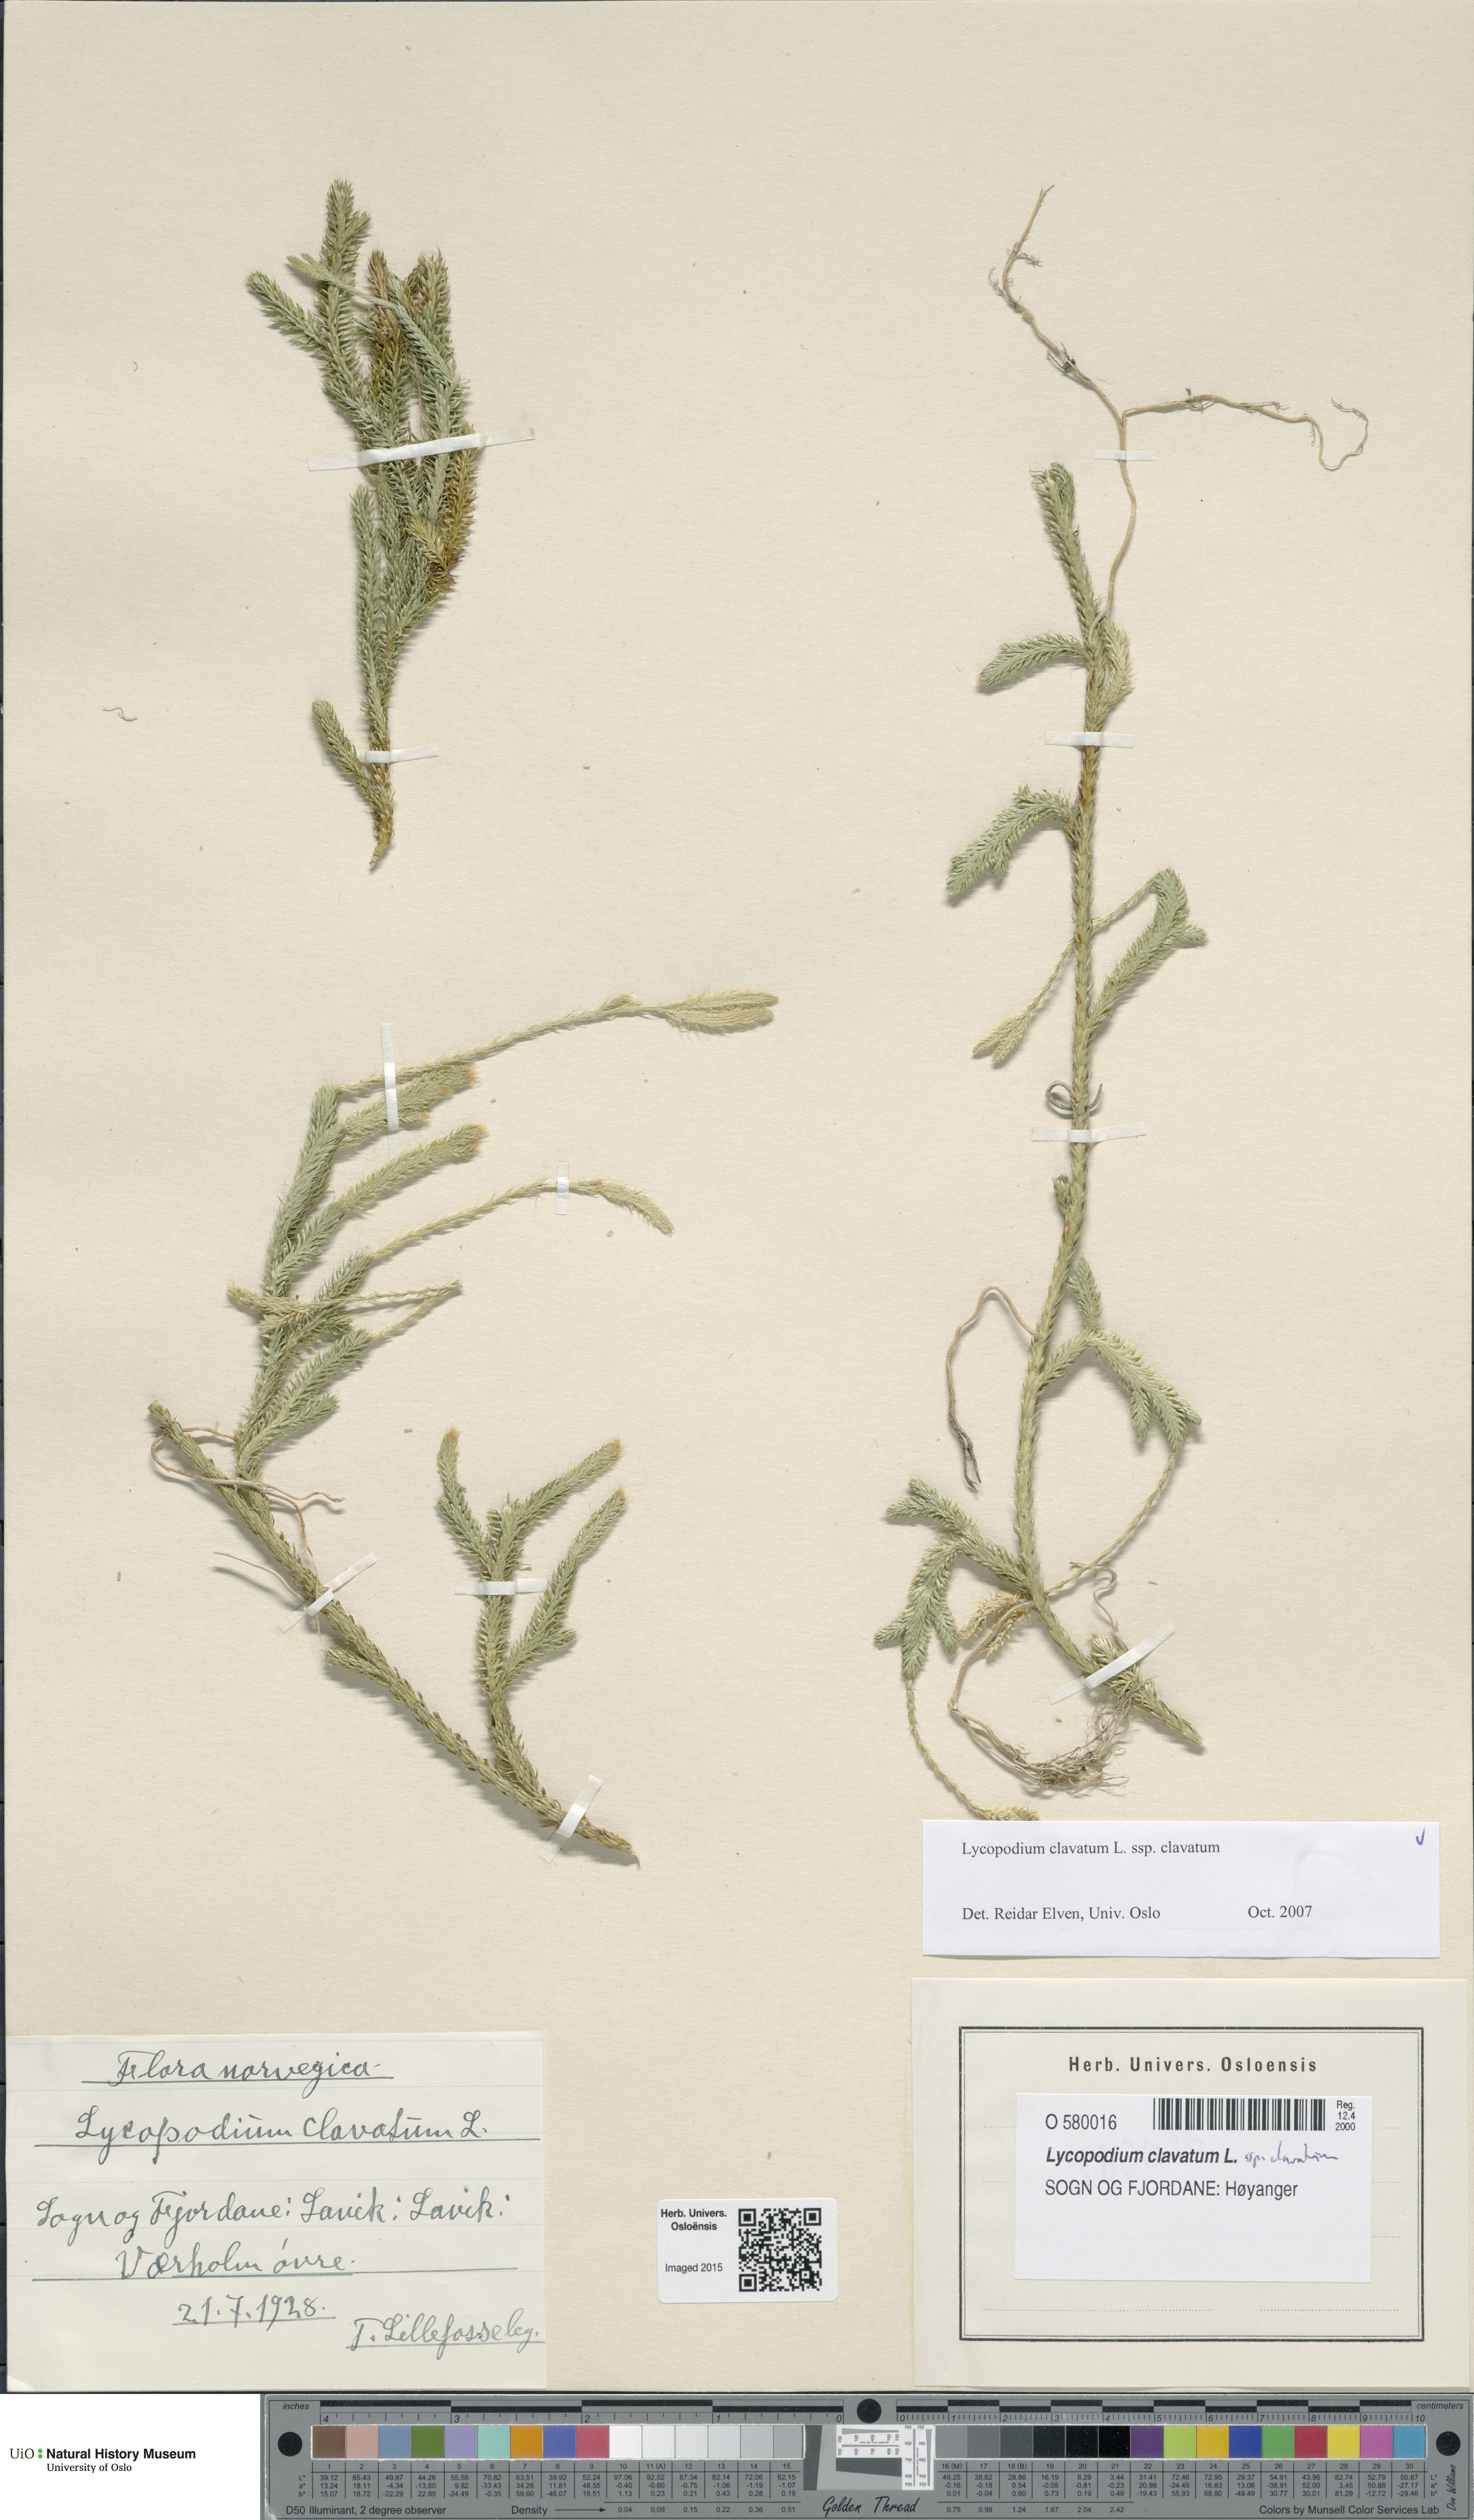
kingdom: Plantae
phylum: Tracheophyta
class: Lycopodiopsida
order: Lycopodiales
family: Lycopodiaceae
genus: Lycopodium
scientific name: Lycopodium clavatum
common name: Stag's-horn clubmoss
